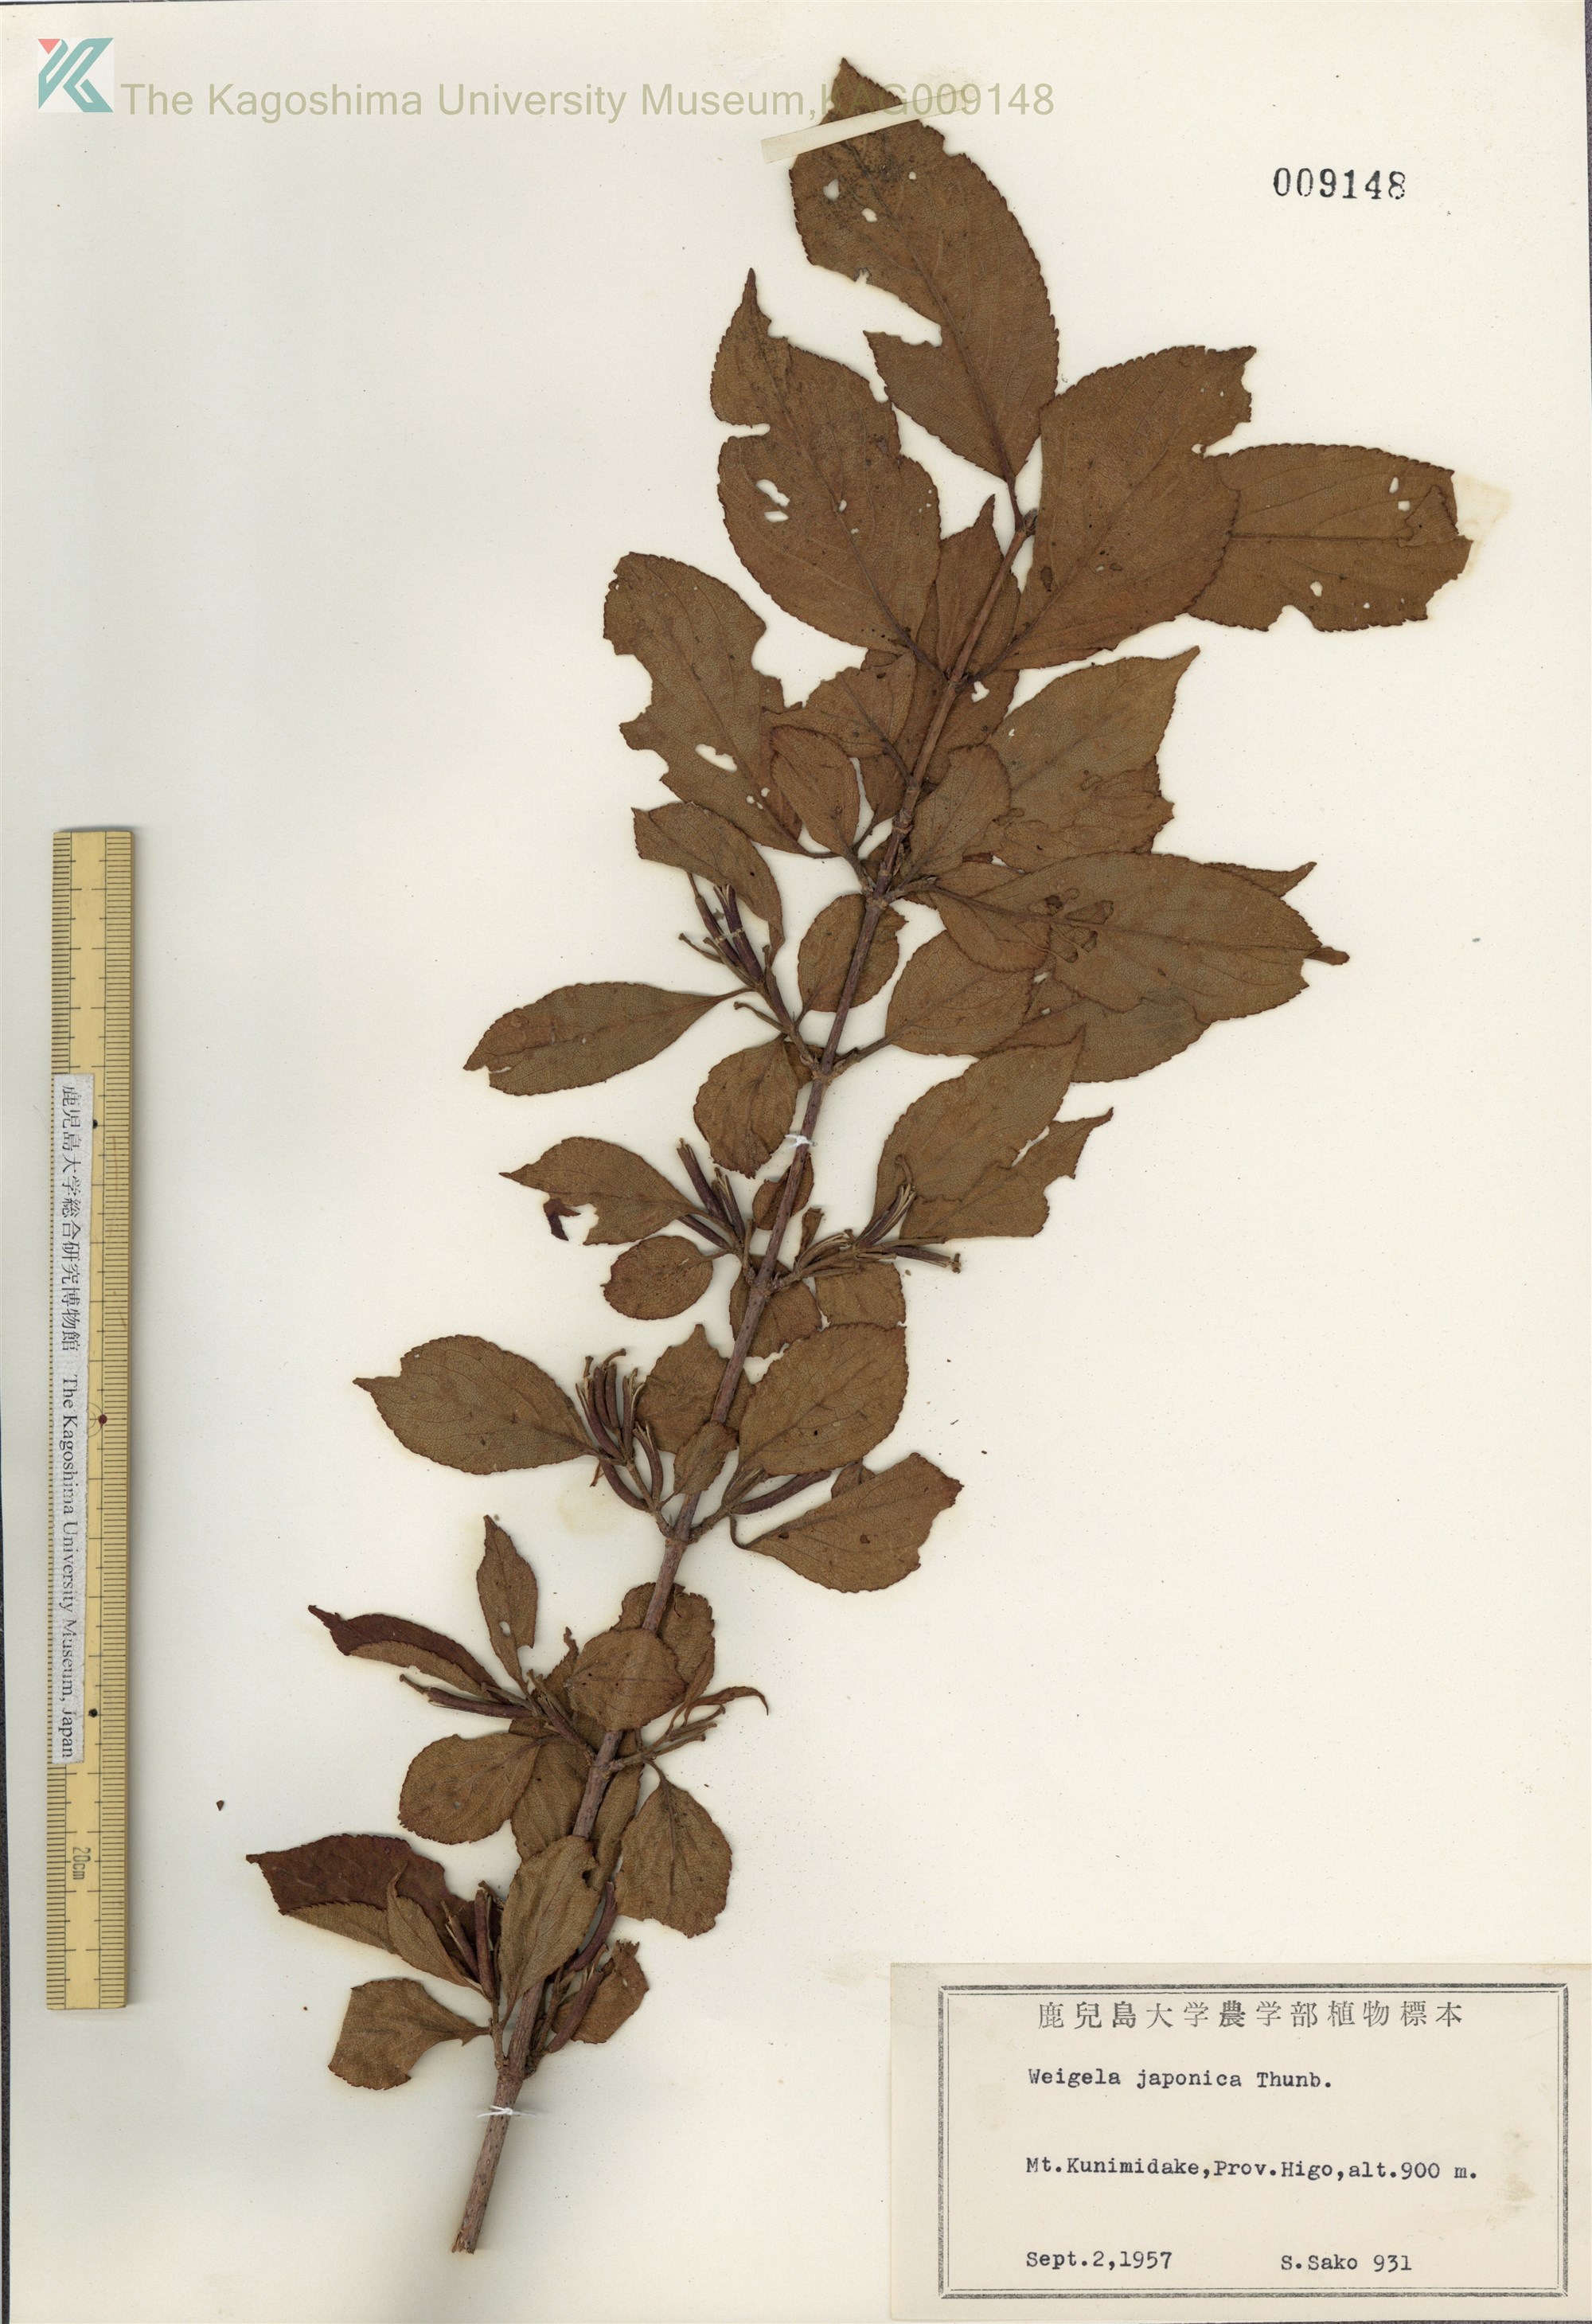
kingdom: Plantae
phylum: Tracheophyta
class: Magnoliopsida
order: Dipsacales
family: Caprifoliaceae
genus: Weigela
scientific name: Weigela japonica
